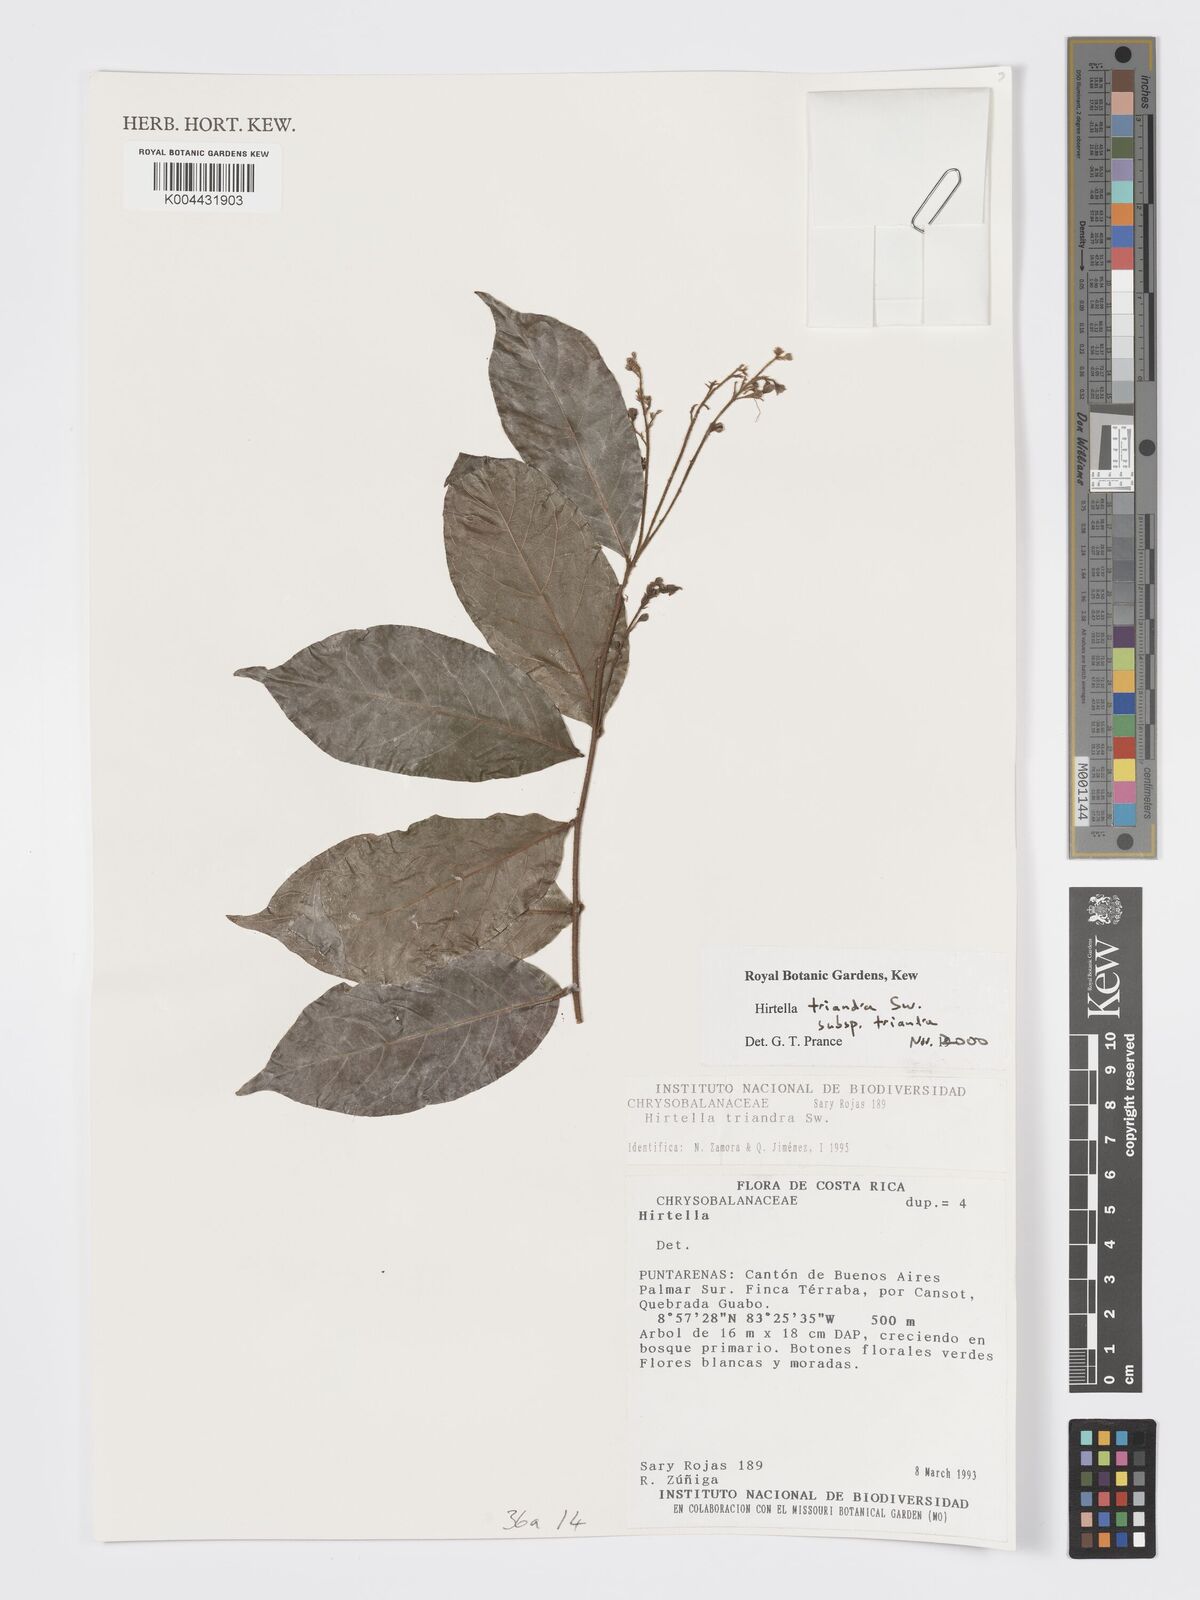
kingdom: Plantae
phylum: Tracheophyta
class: Magnoliopsida
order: Malpighiales
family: Chrysobalanaceae
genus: Hirtella
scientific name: Hirtella triandra
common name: Hairy plum
